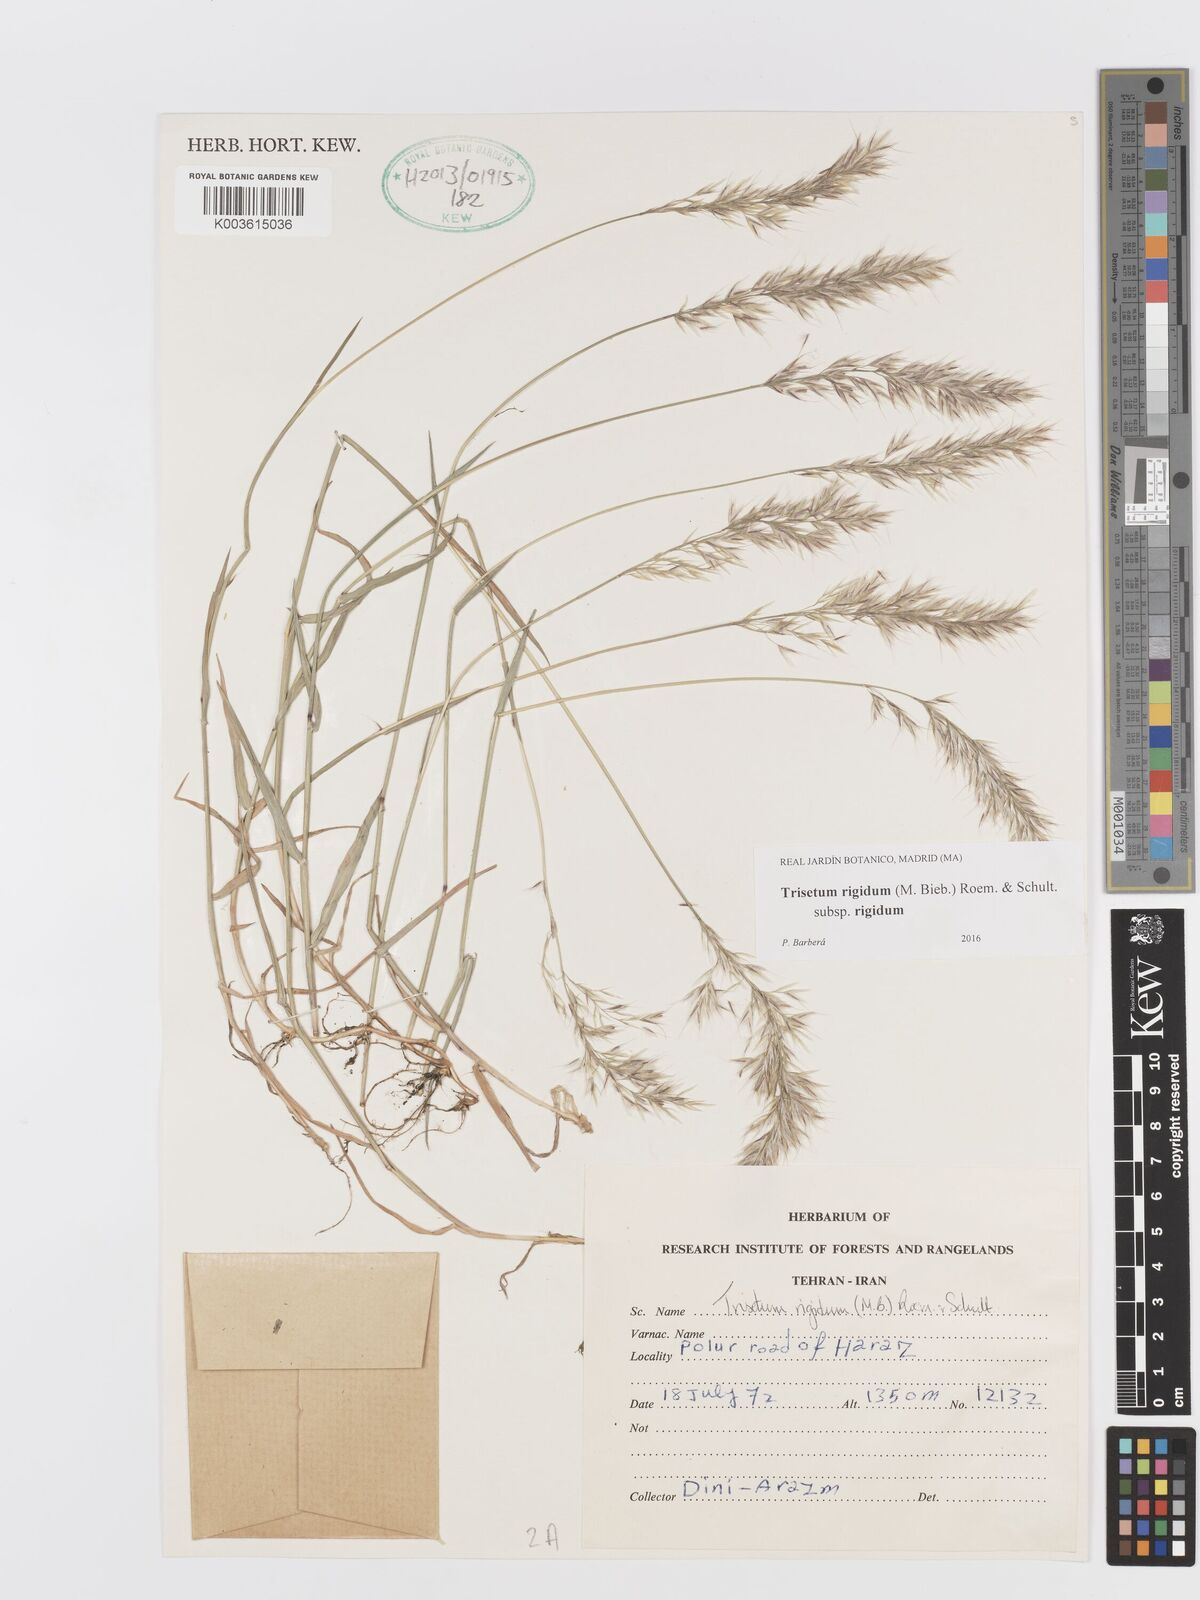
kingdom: Plantae
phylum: Tracheophyta
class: Liliopsida
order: Poales
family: Poaceae
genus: Trisetum
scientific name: Trisetum rigidum
